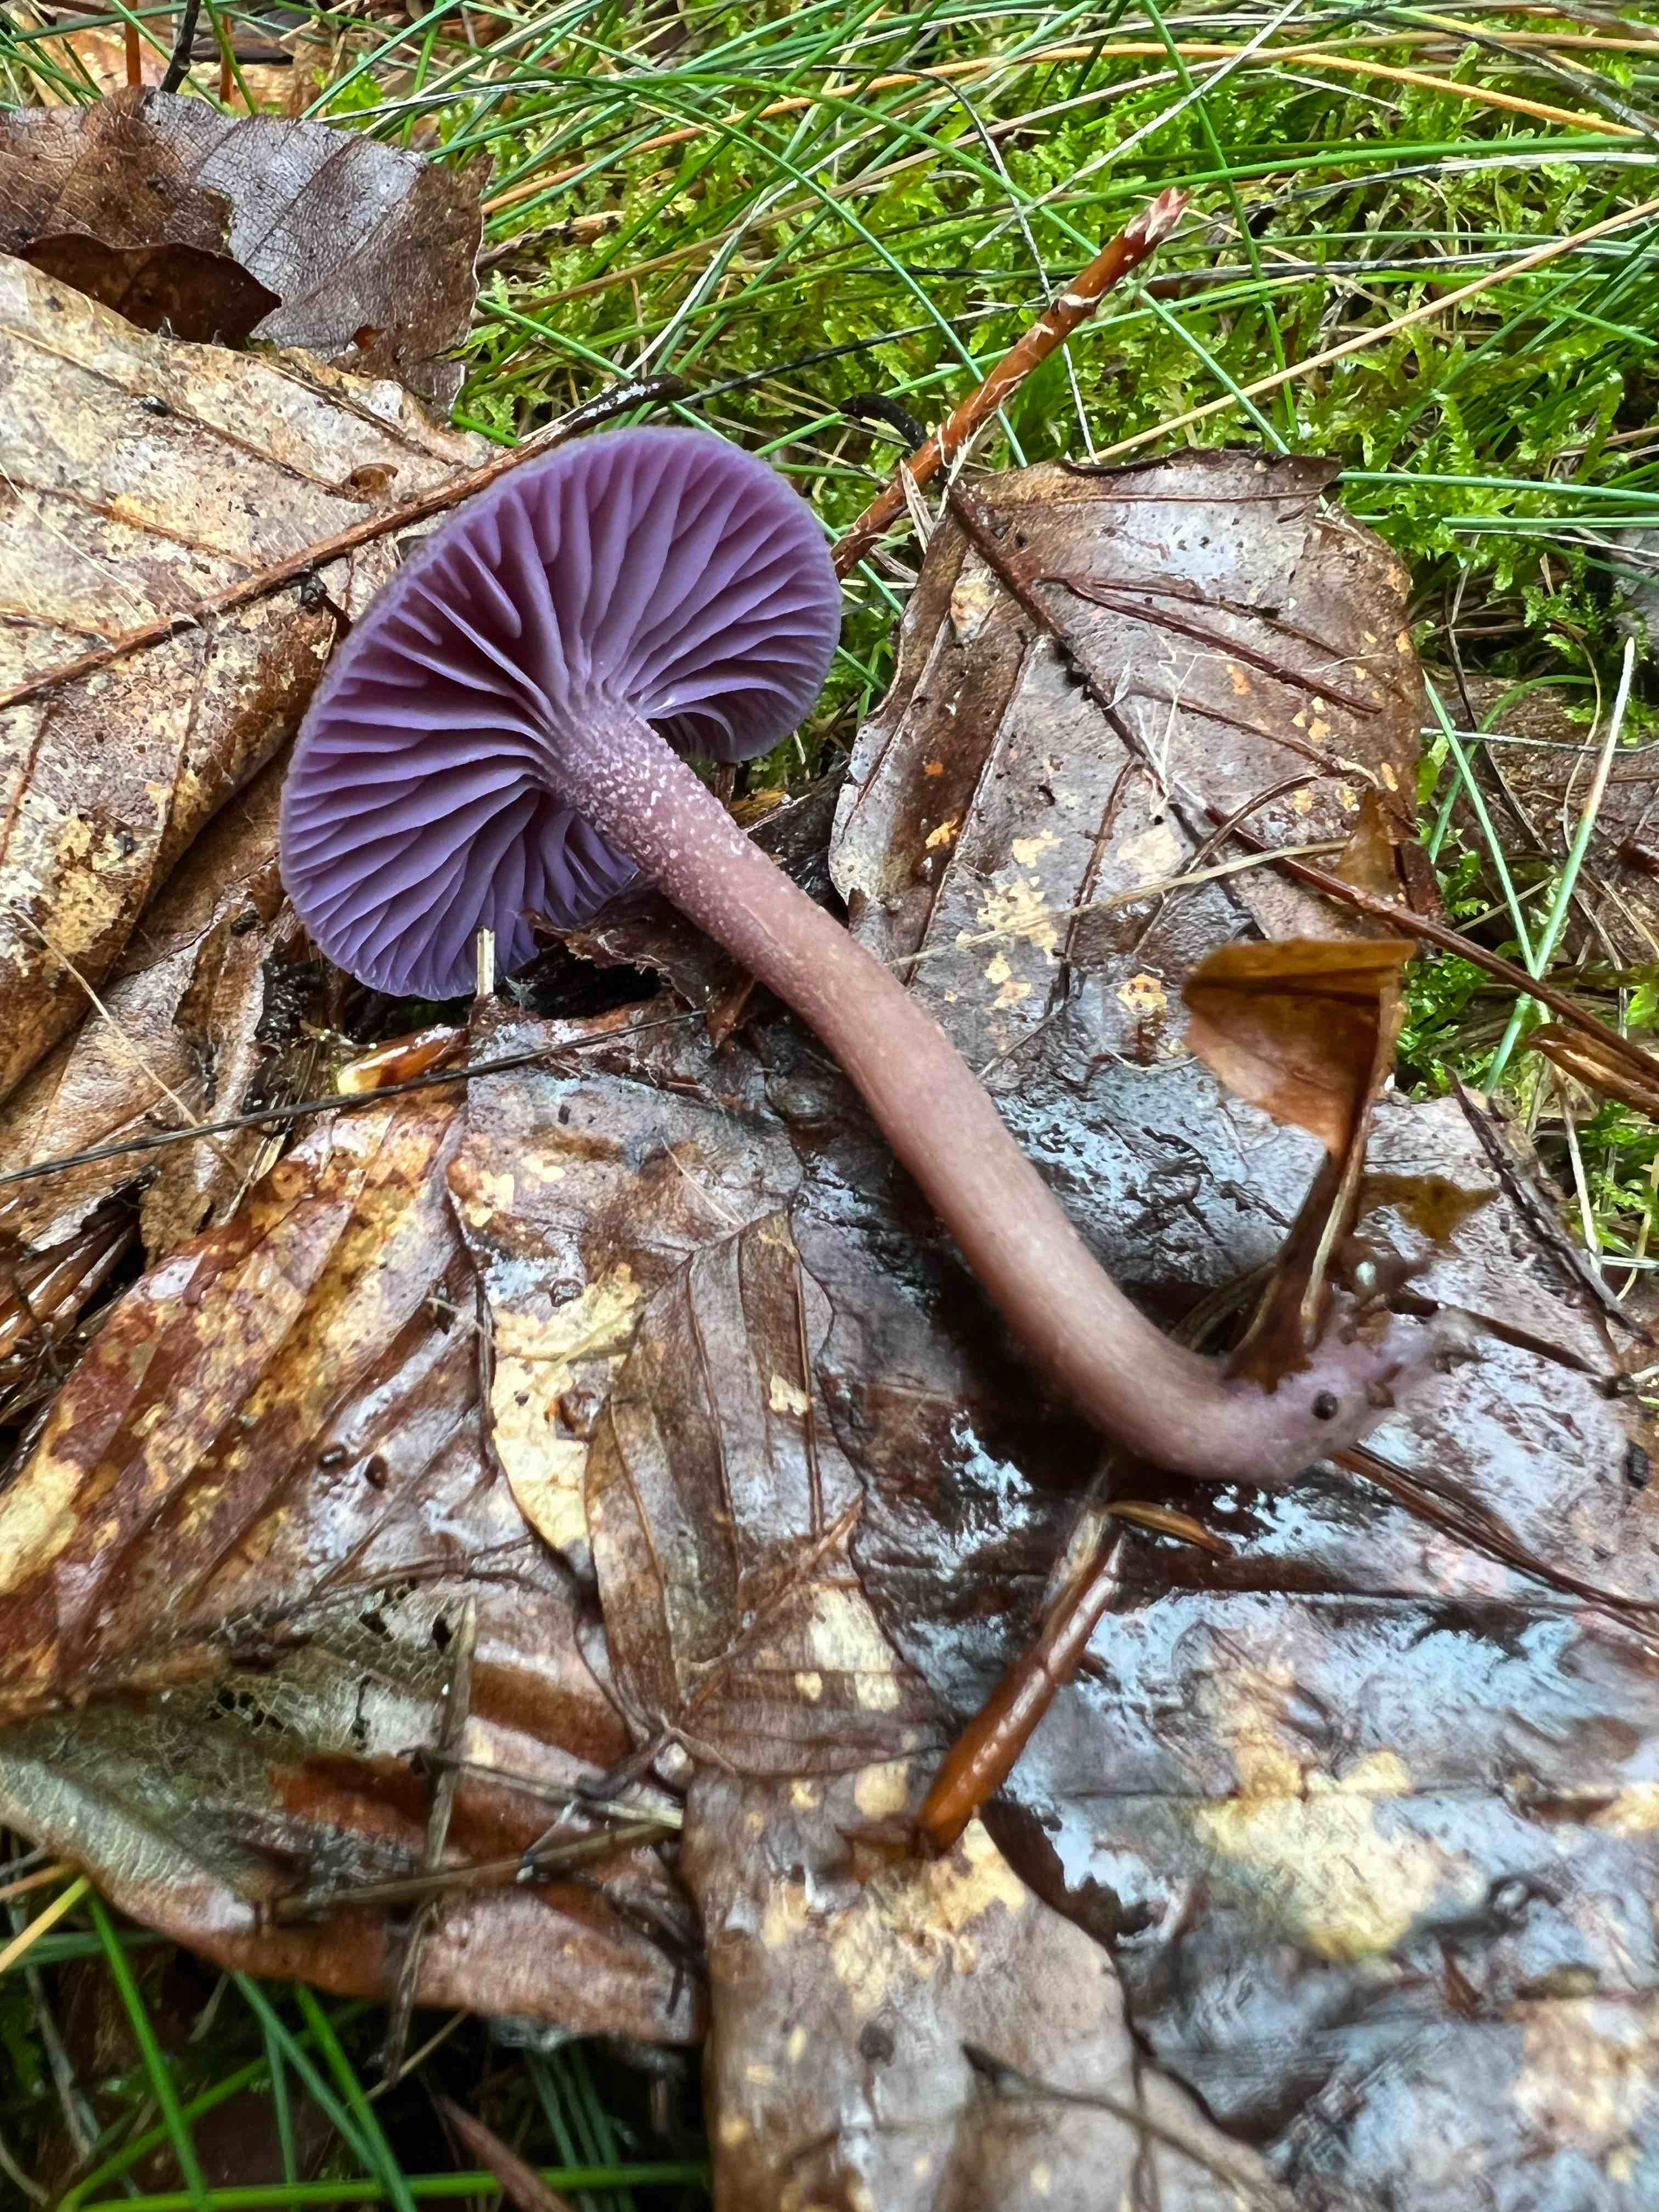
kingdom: Fungi
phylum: Basidiomycota
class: Agaricomycetes
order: Agaricales
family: Hydnangiaceae
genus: Laccaria
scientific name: Laccaria amethystina
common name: violet ametysthat
